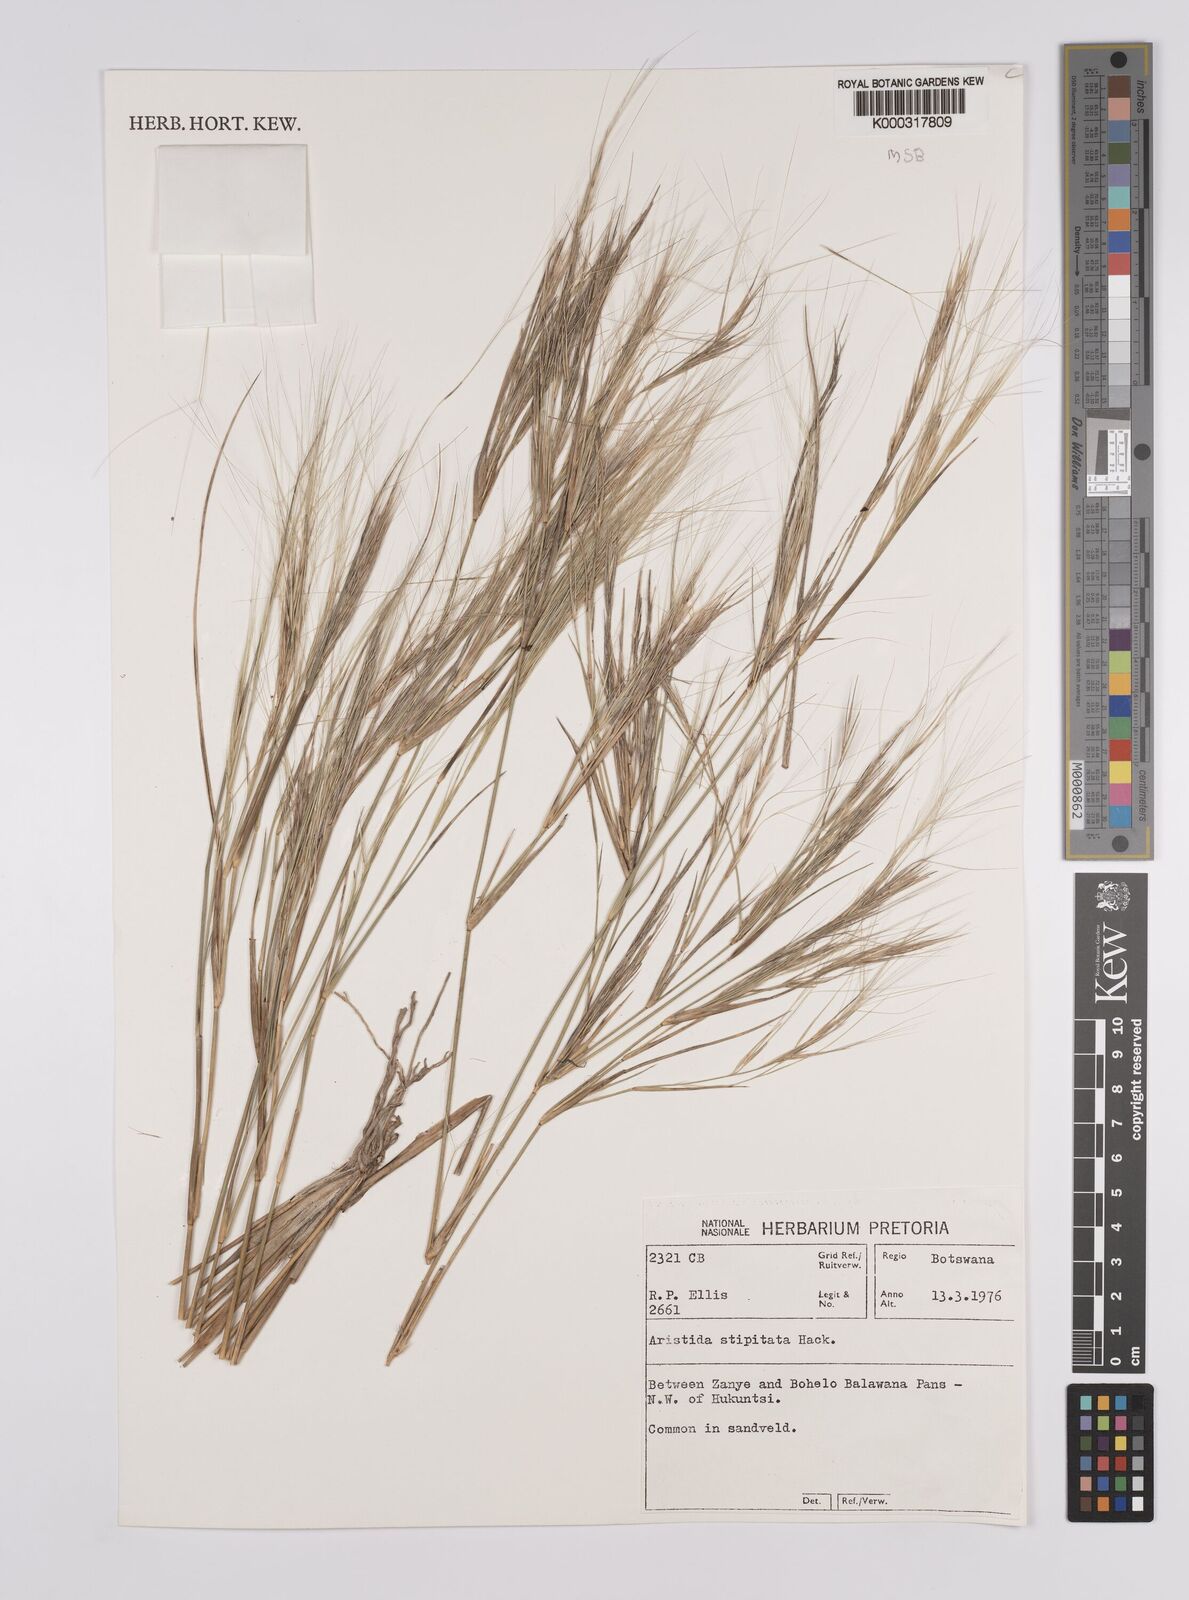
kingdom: Plantae
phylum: Tracheophyta
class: Liliopsida
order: Poales
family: Poaceae
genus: Aristida
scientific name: Aristida stipitata
